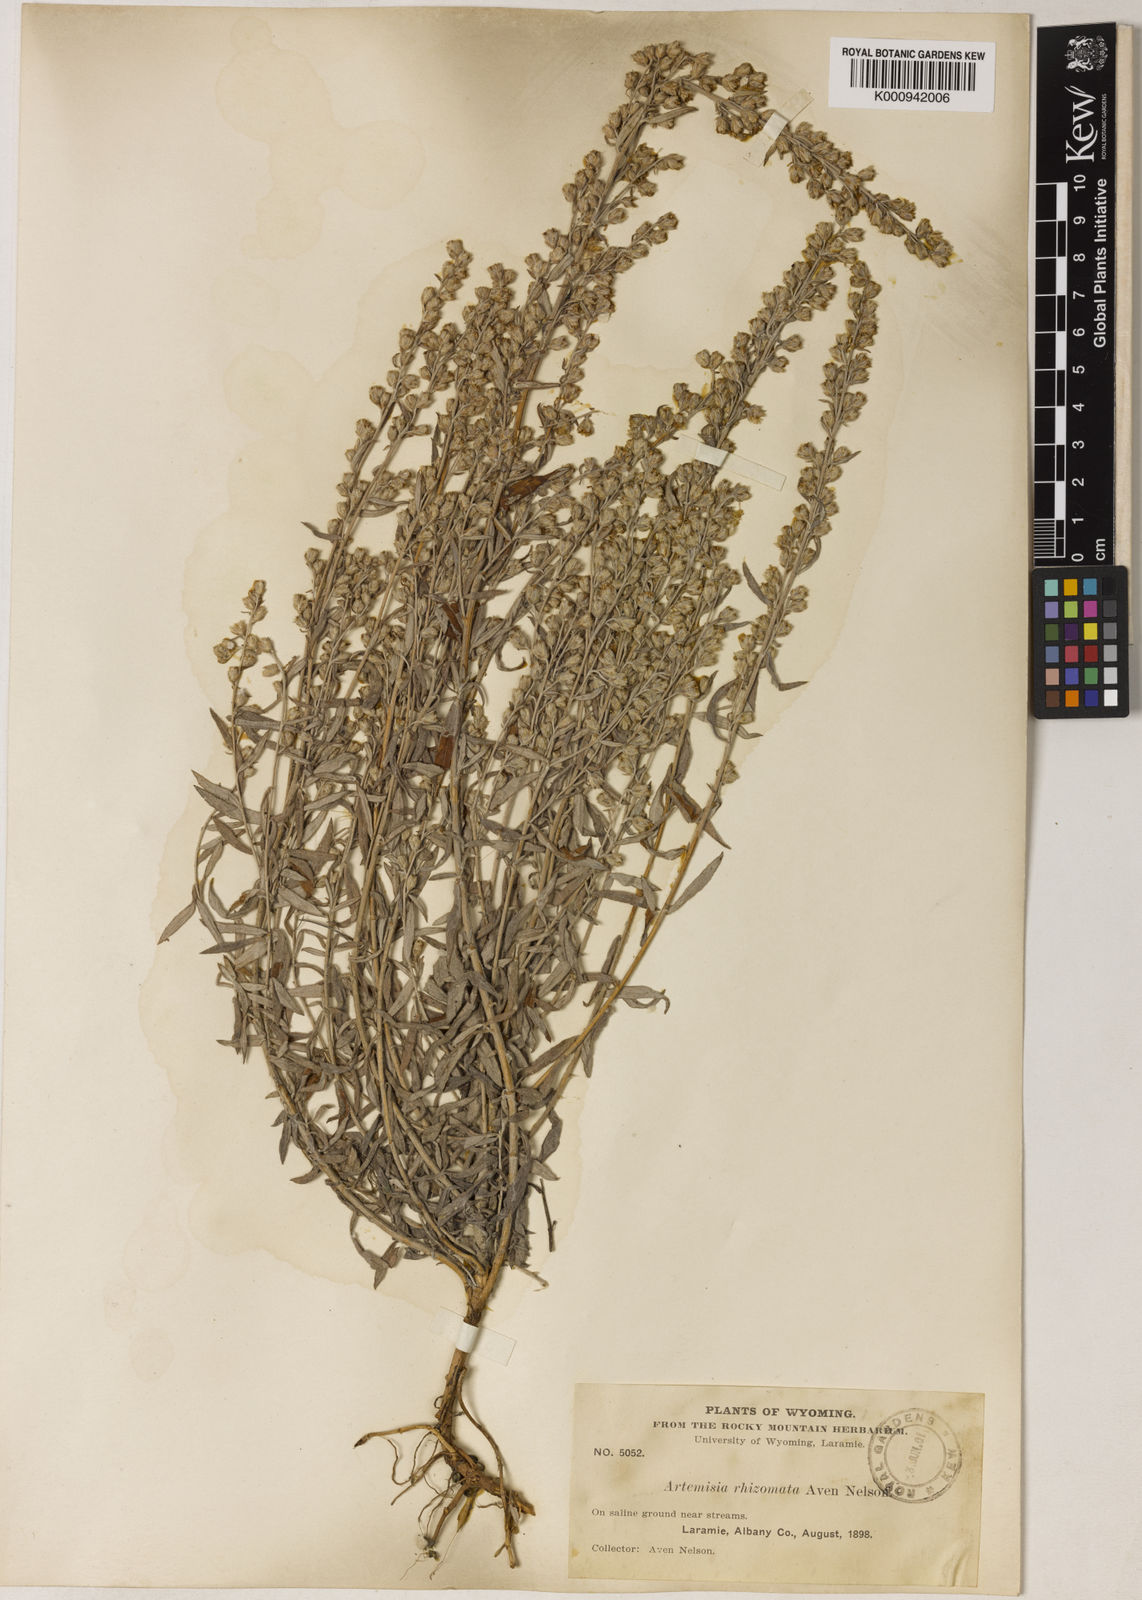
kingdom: Plantae
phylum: Tracheophyta
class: Magnoliopsida
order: Asterales
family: Asteraceae
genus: Artemisia
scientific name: Artemisia ludoviciana
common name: Western mugwort
